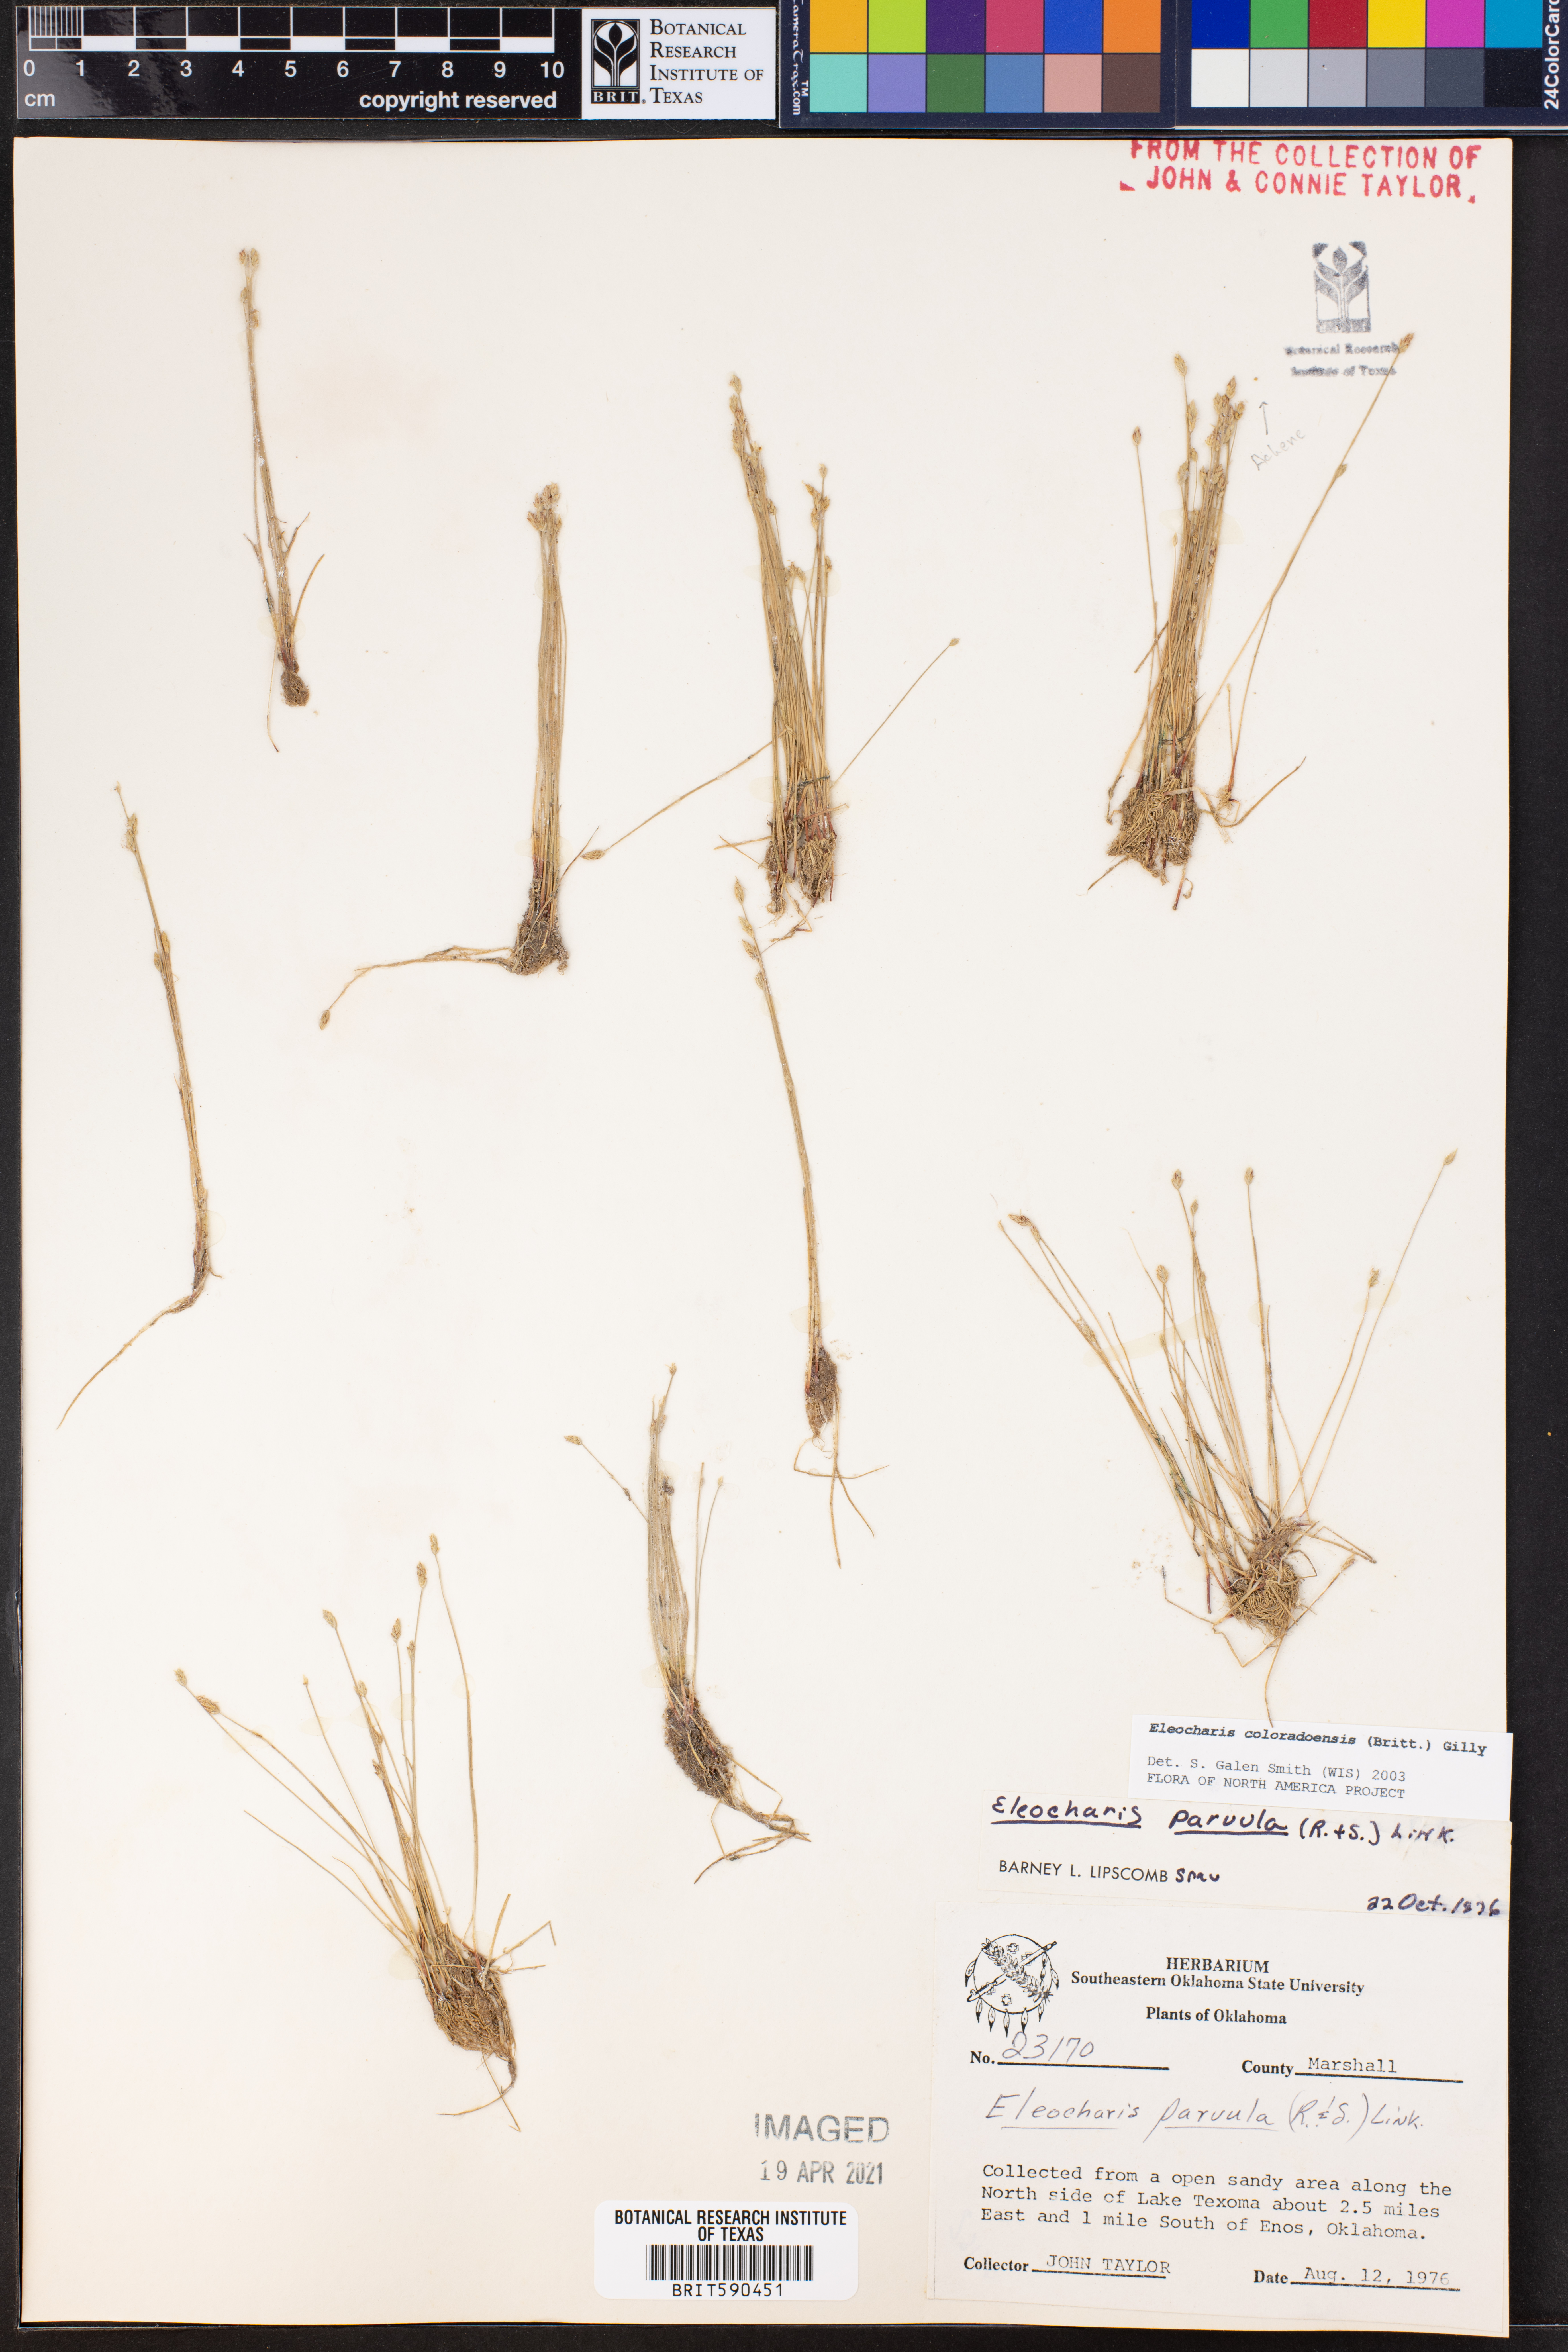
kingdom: Plantae
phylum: Tracheophyta
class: Liliopsida
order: Poales
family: Cyperaceae
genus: Eleocharis
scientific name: Eleocharis coloradoensis
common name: Colorado spikerush
